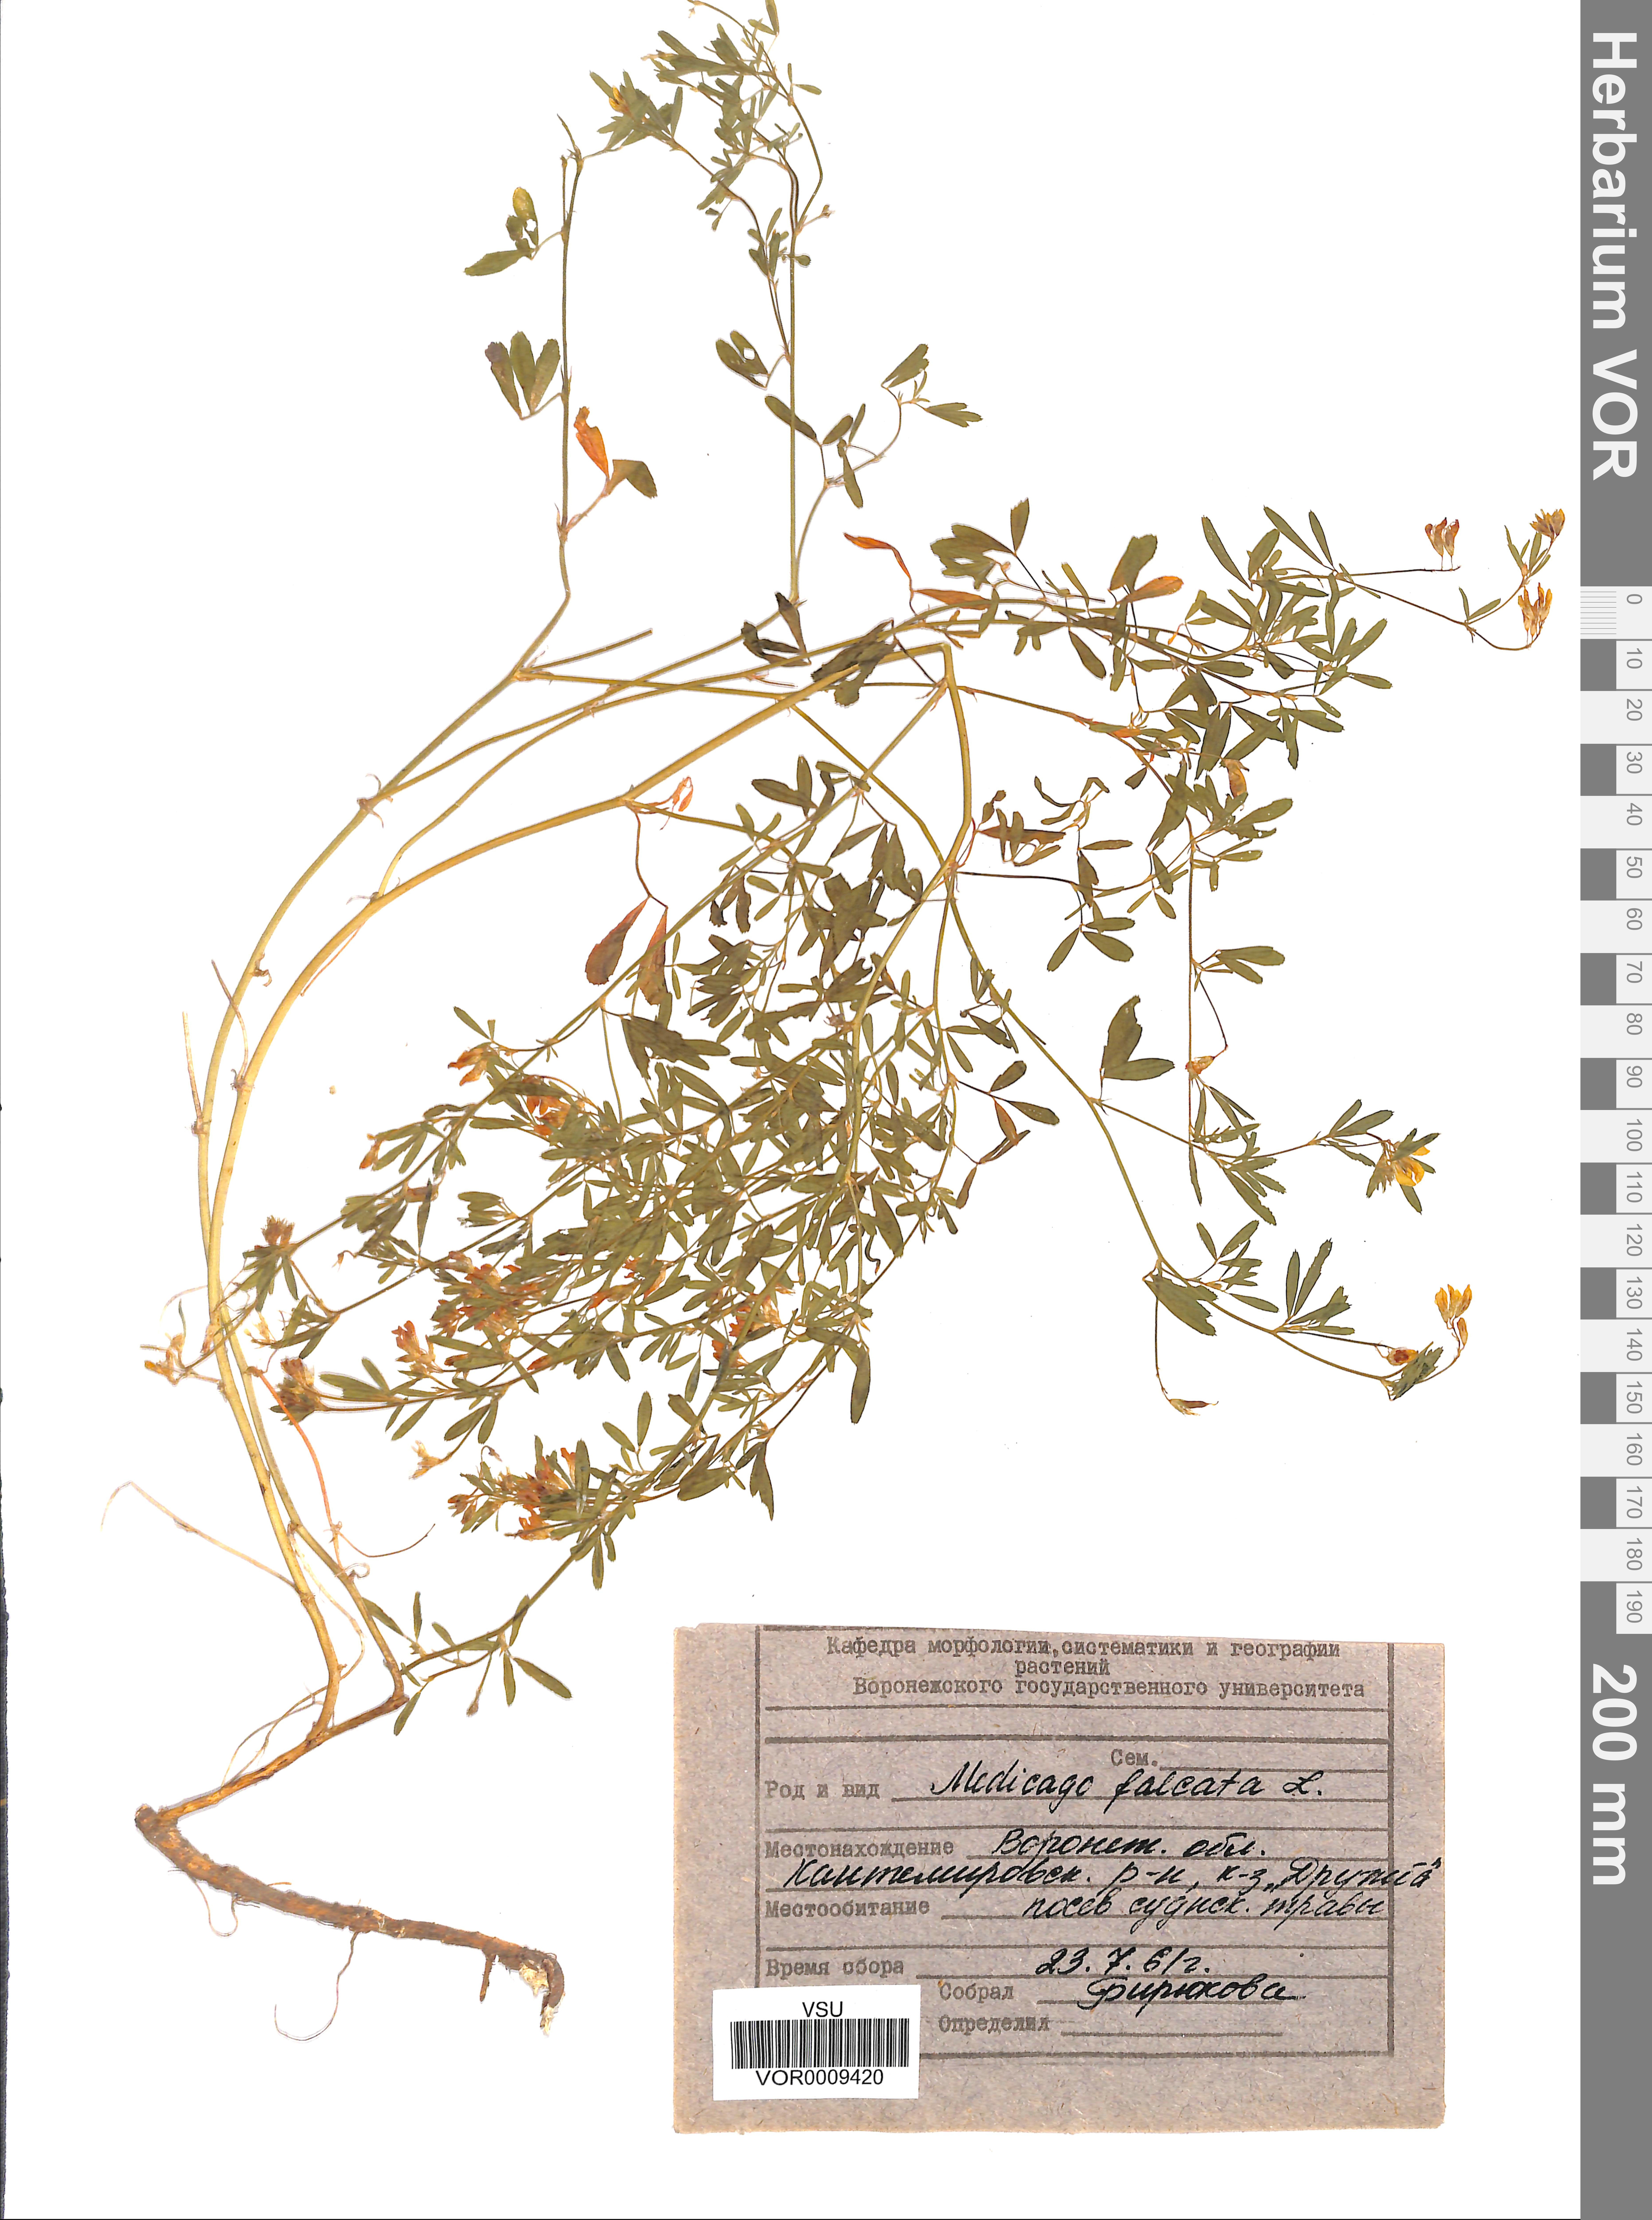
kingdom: Plantae
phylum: Tracheophyta
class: Magnoliopsida
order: Fabales
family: Fabaceae
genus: Medicago
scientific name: Medicago falcata
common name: Sickle medick
